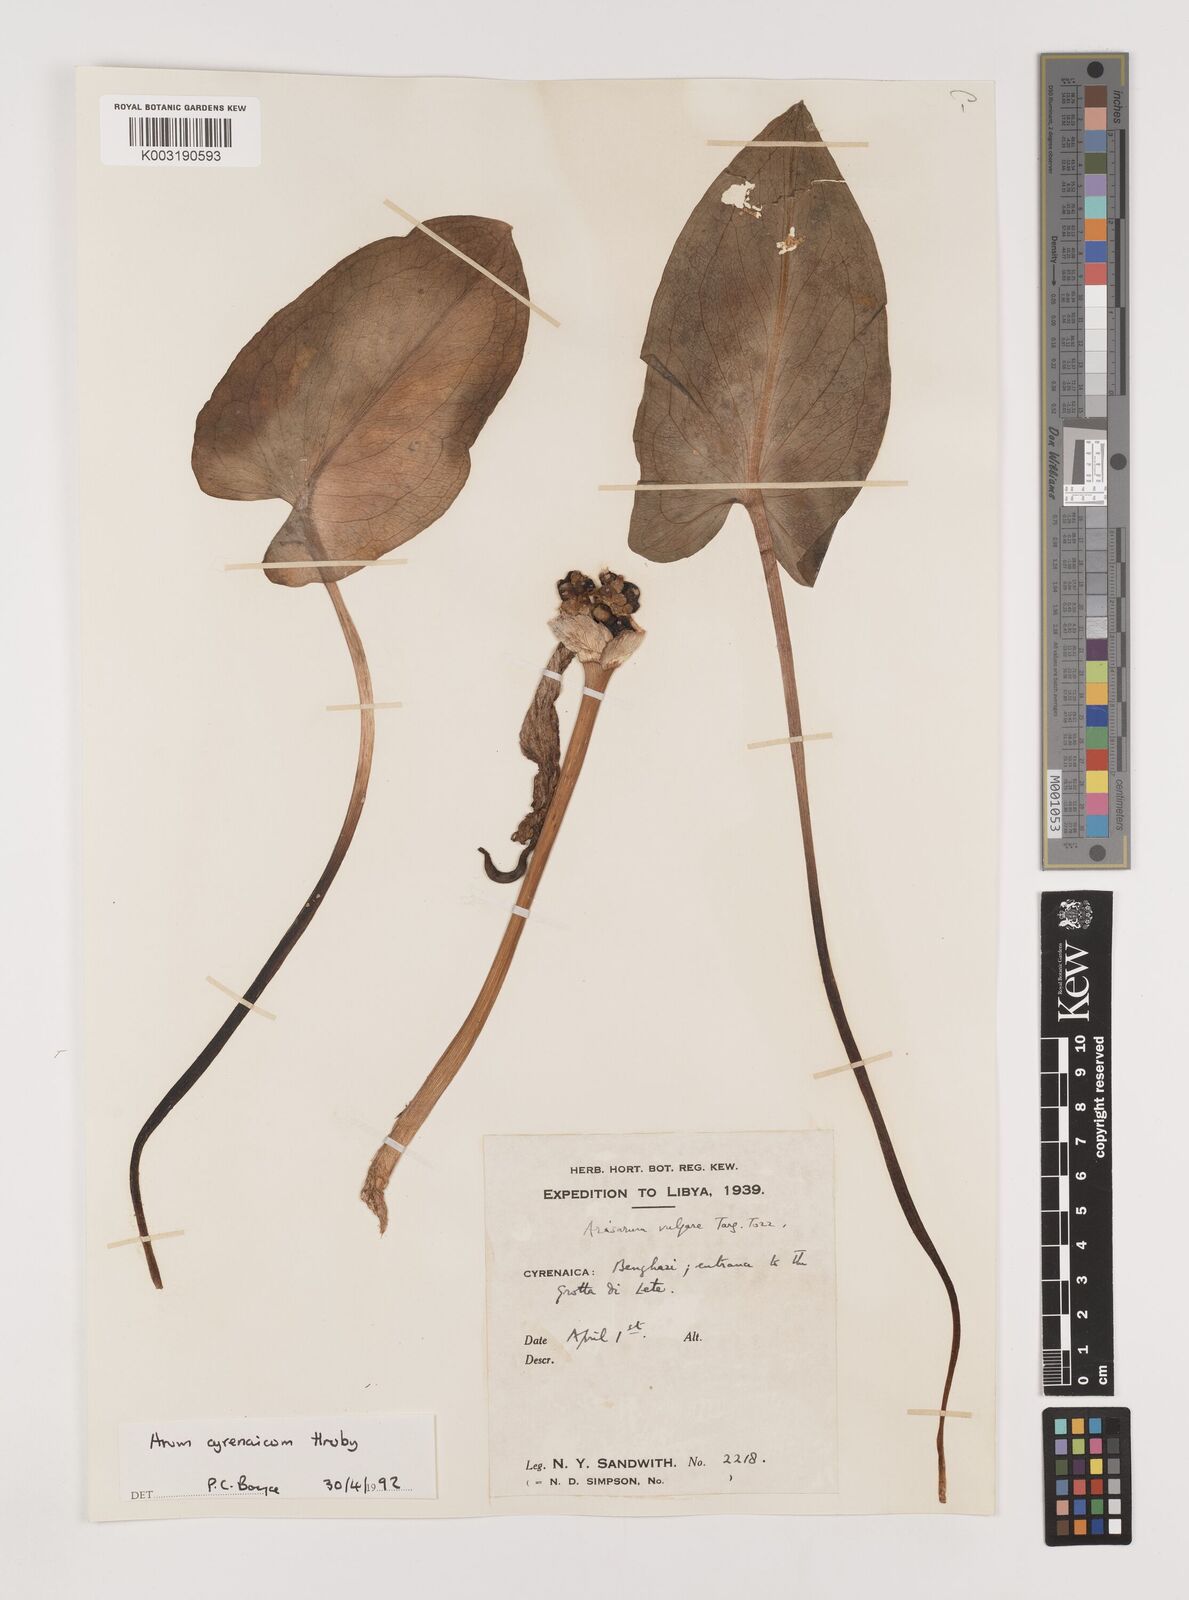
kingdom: Plantae
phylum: Tracheophyta
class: Liliopsida
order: Alismatales
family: Araceae
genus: Arum
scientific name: Arum cyrenaicum
